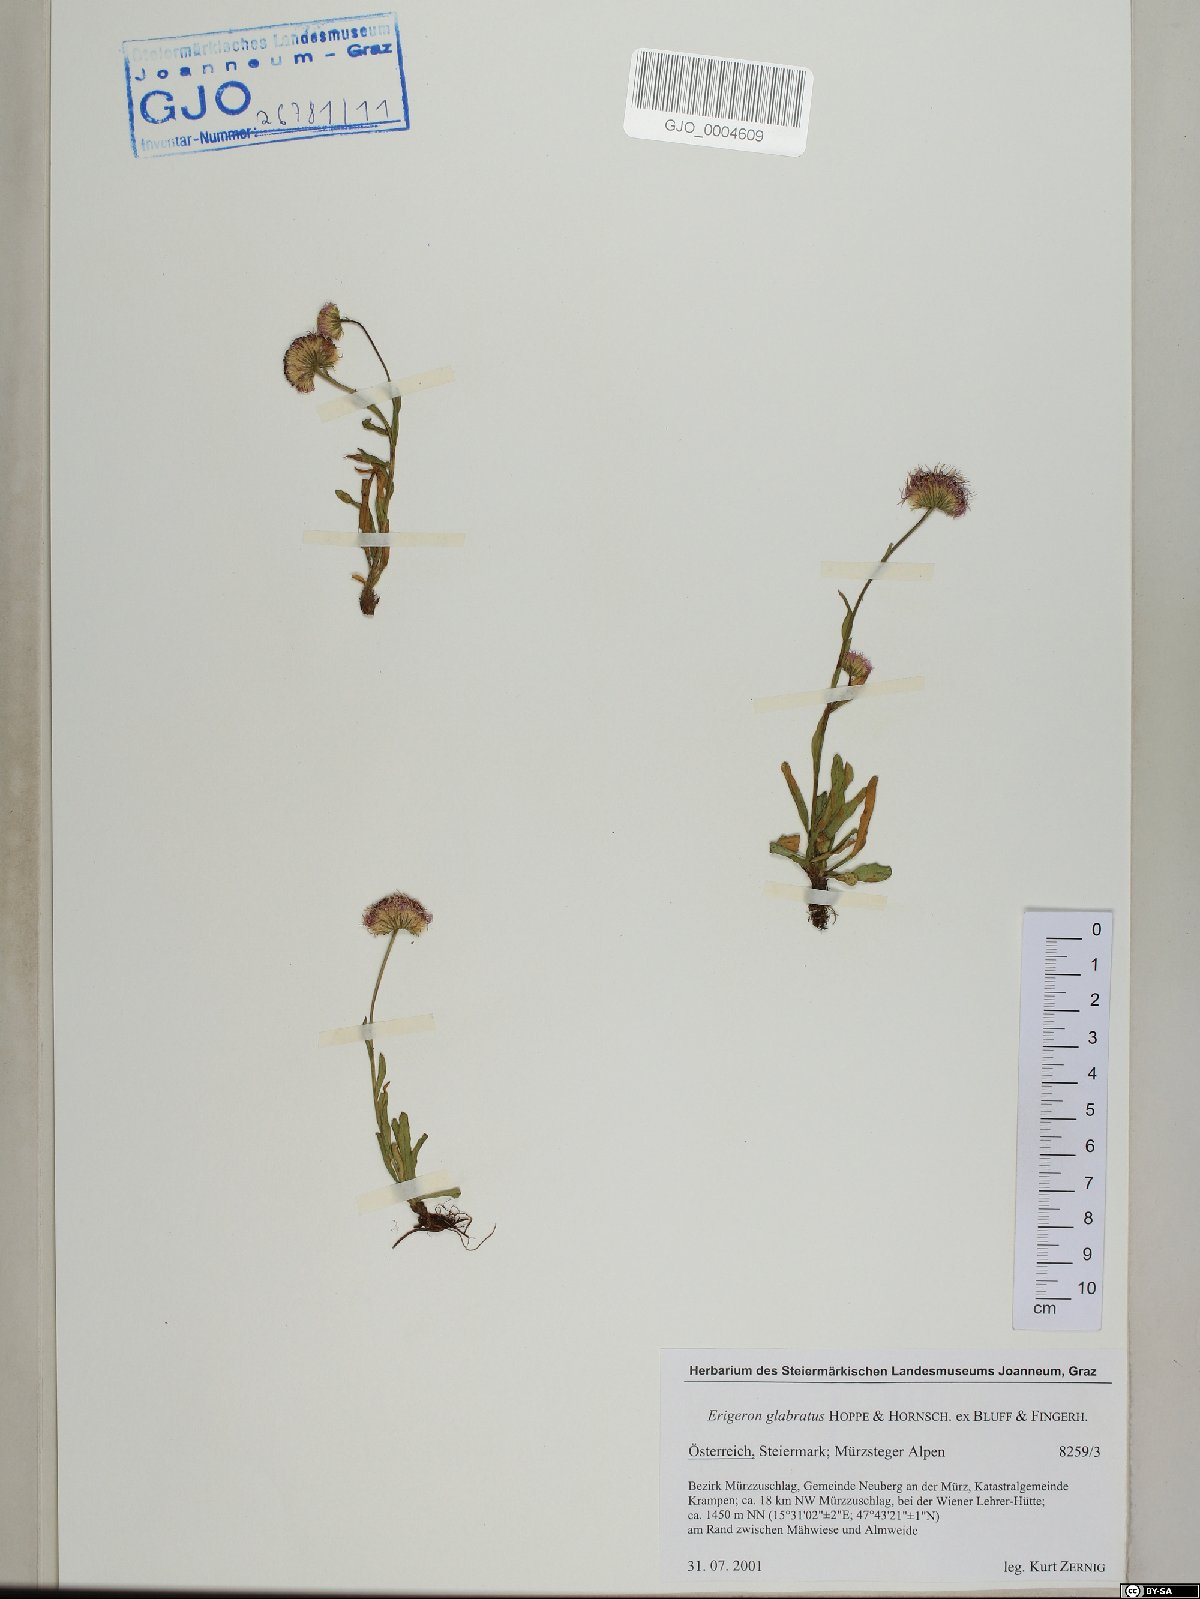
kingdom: Plantae
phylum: Tracheophyta
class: Magnoliopsida
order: Asterales
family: Asteraceae
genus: Erigeron
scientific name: Erigeron glabratus
